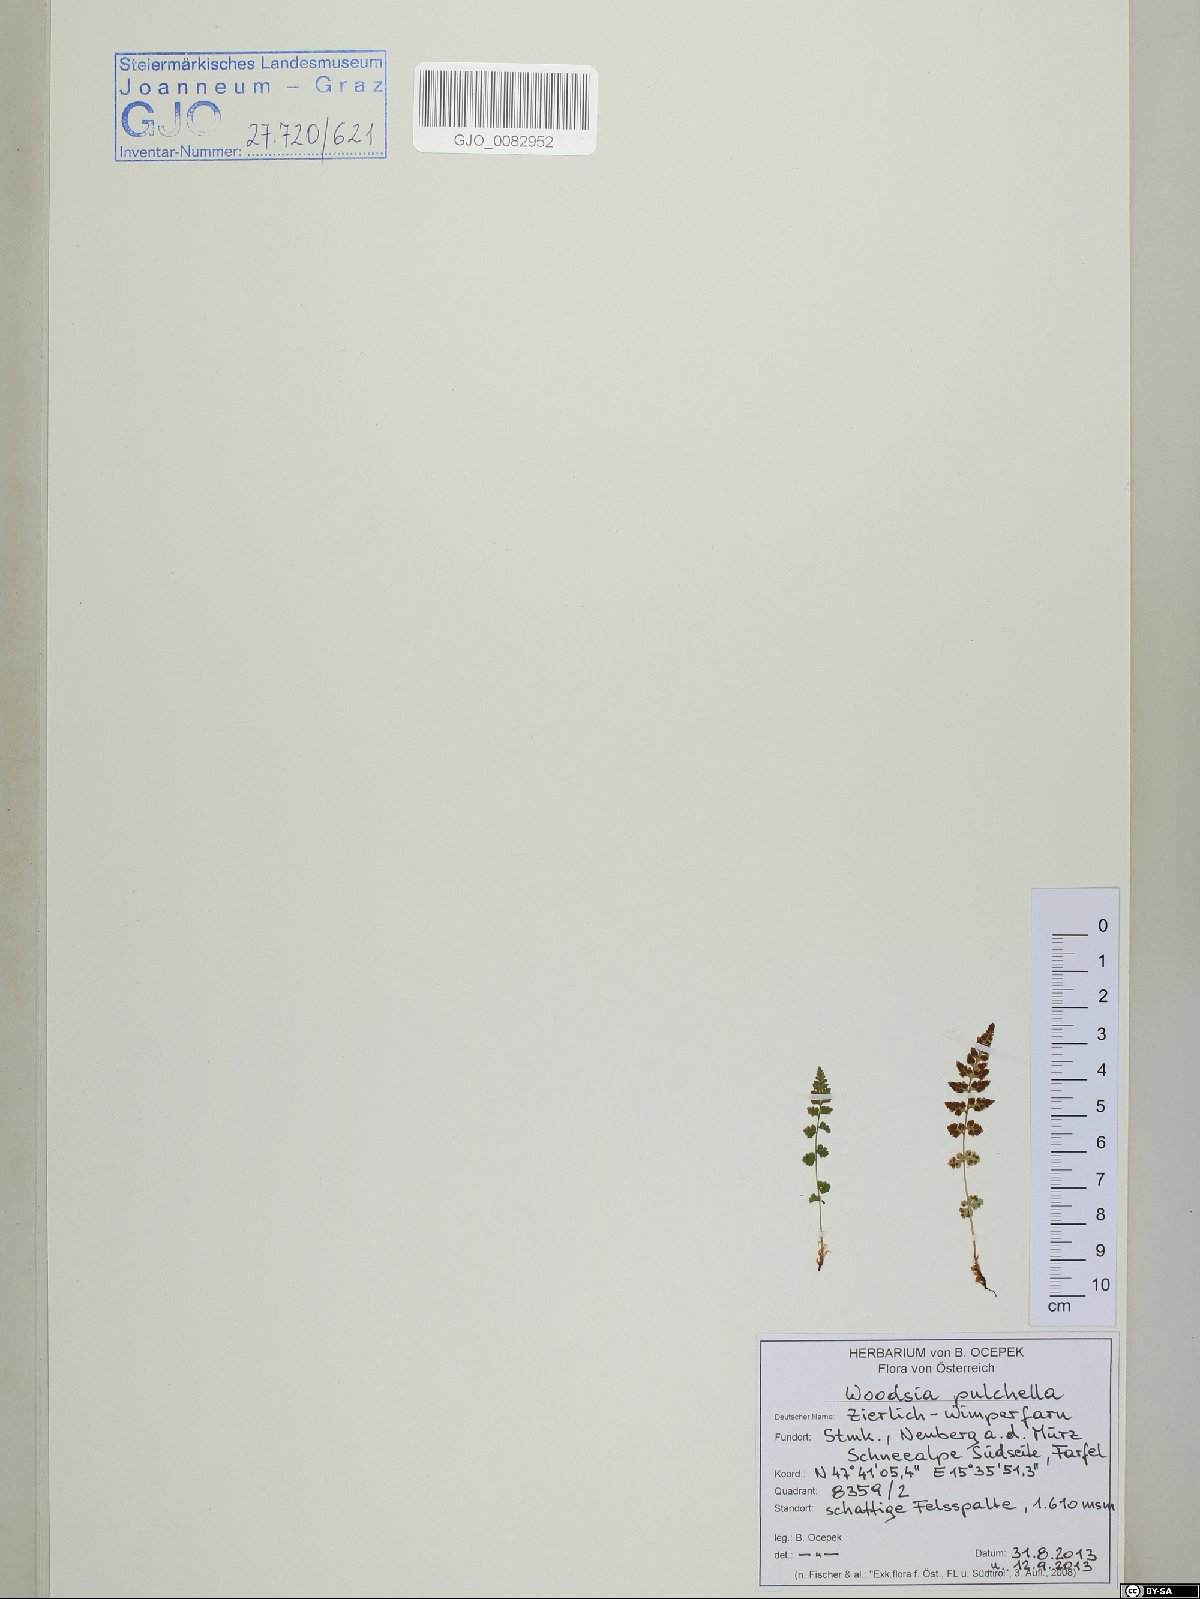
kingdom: Plantae
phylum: Tracheophyta
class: Polypodiopsida
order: Polypodiales
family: Woodsiaceae
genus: Woodsia
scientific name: Woodsia pulchella
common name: Graceful woodsia
